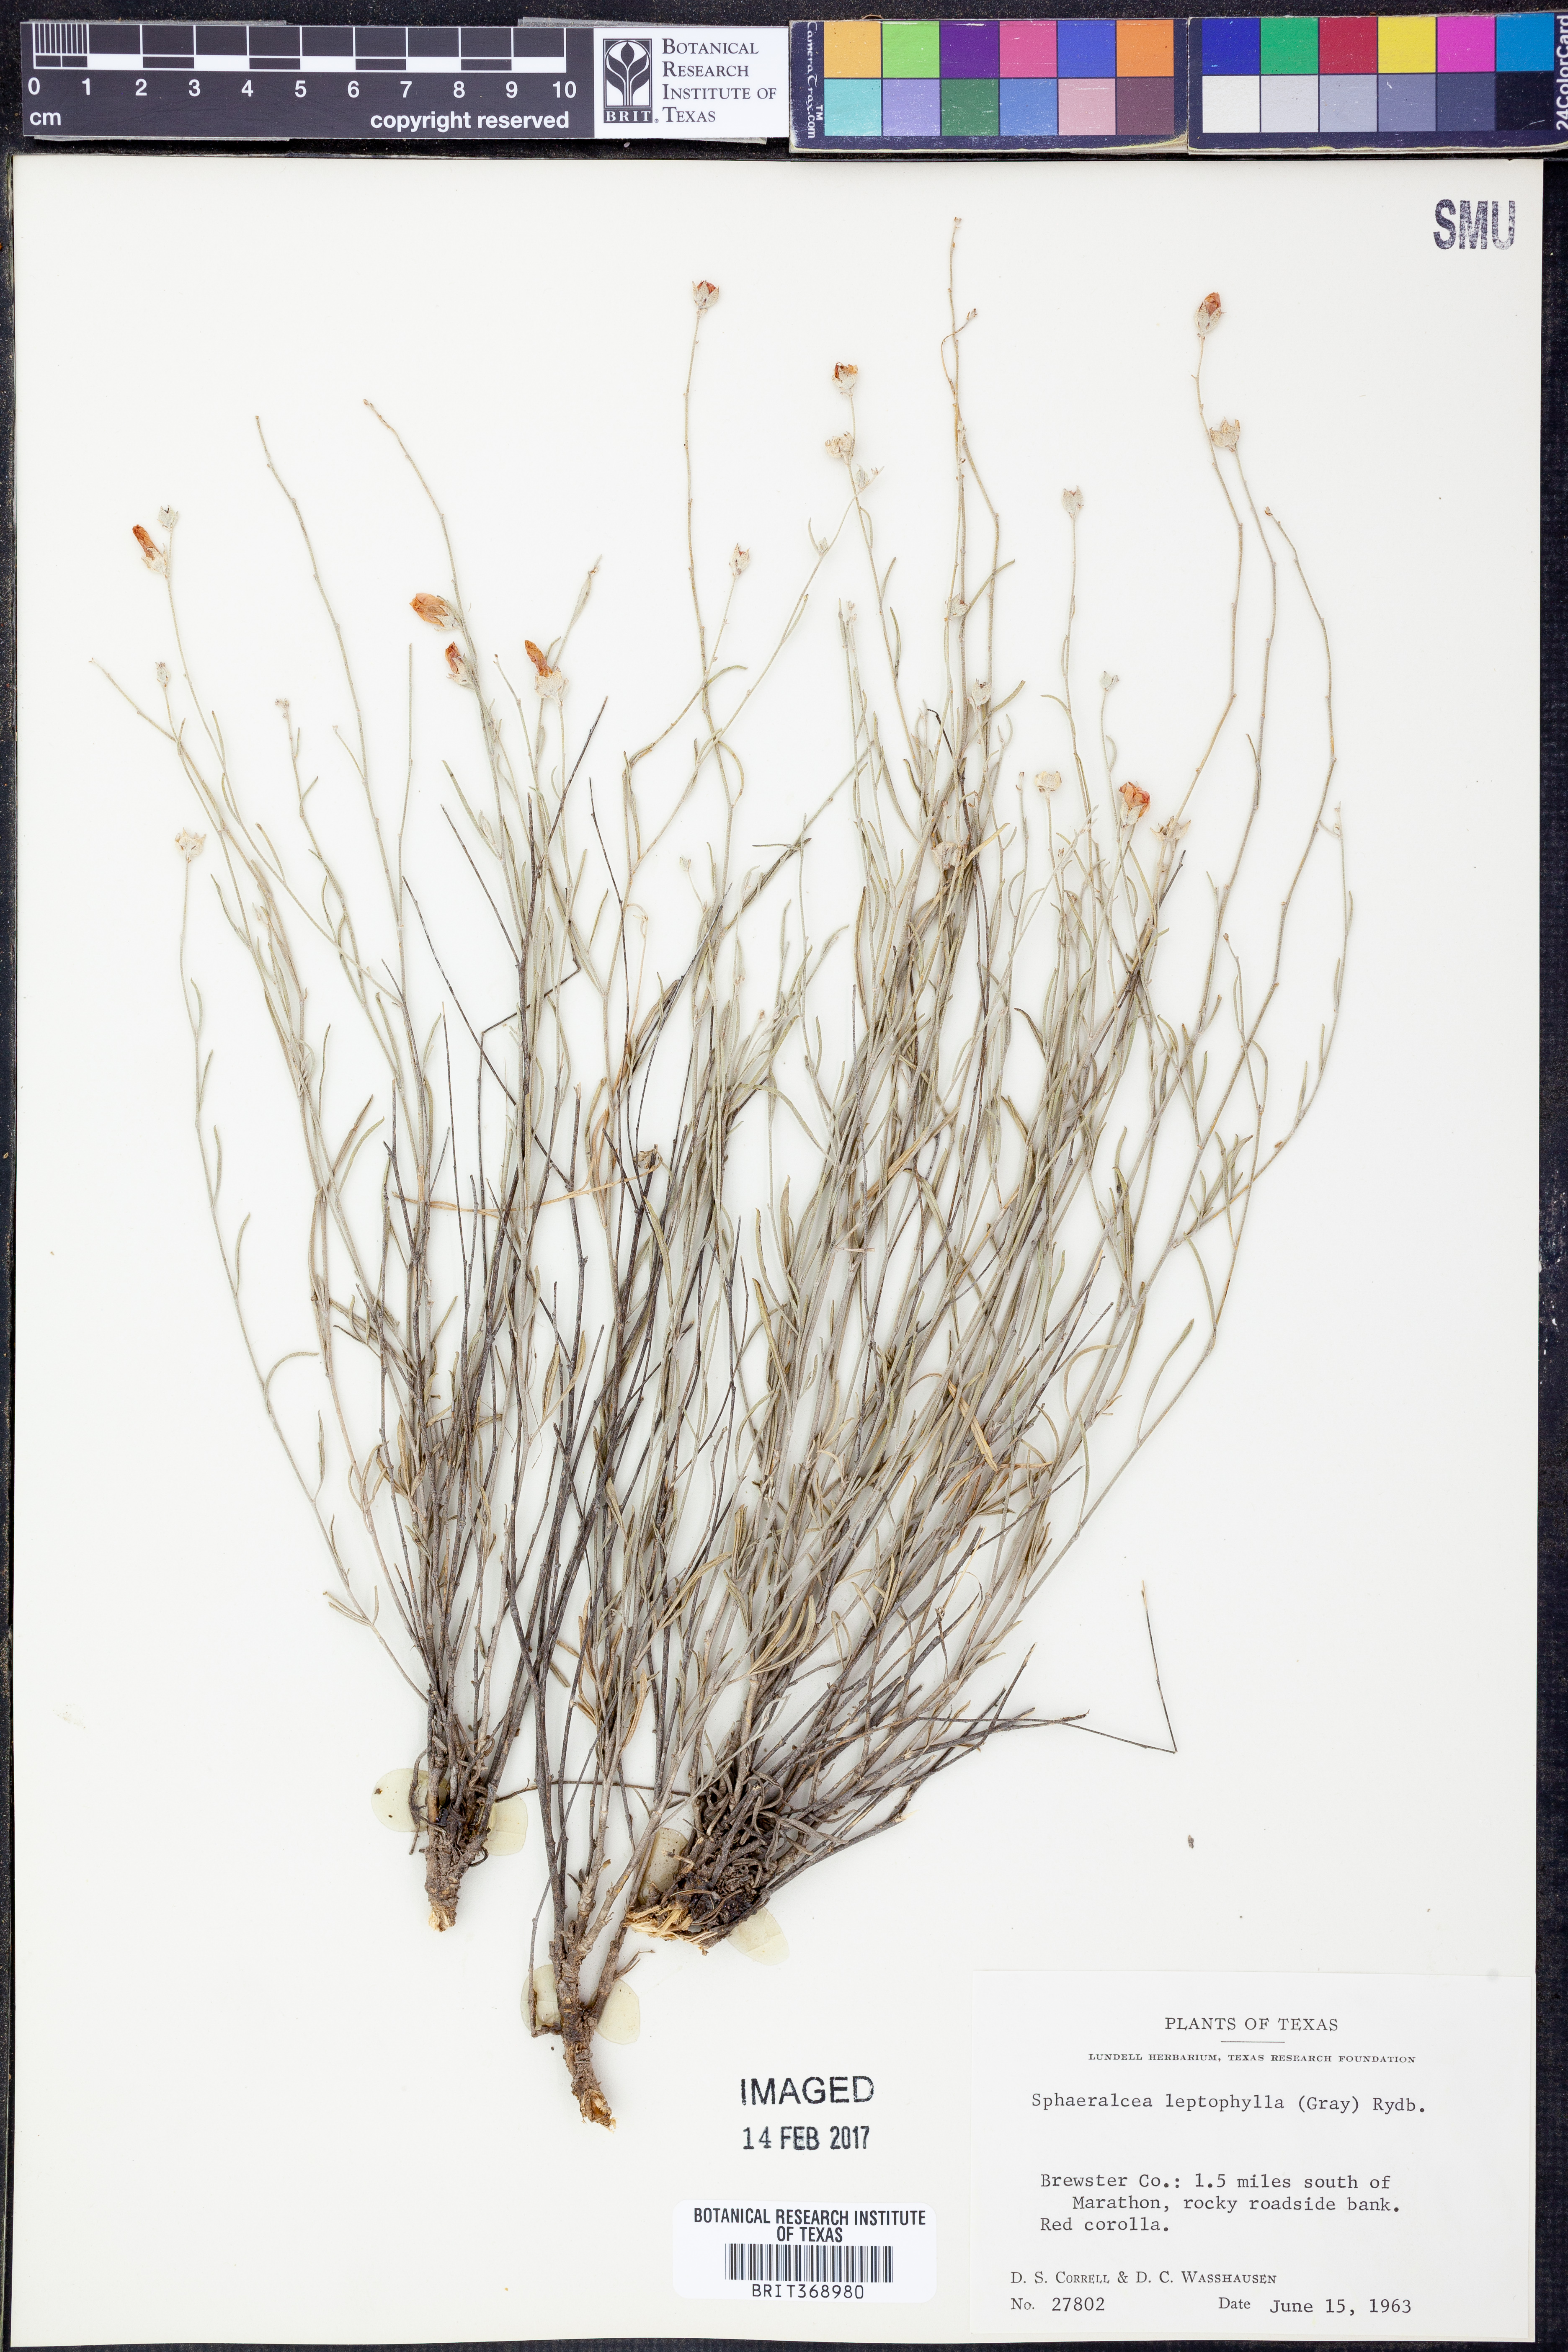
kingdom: Plantae
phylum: Tracheophyta
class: Magnoliopsida
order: Malvales
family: Malvaceae
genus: Sphaeralcea
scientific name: Sphaeralcea leptophylla
